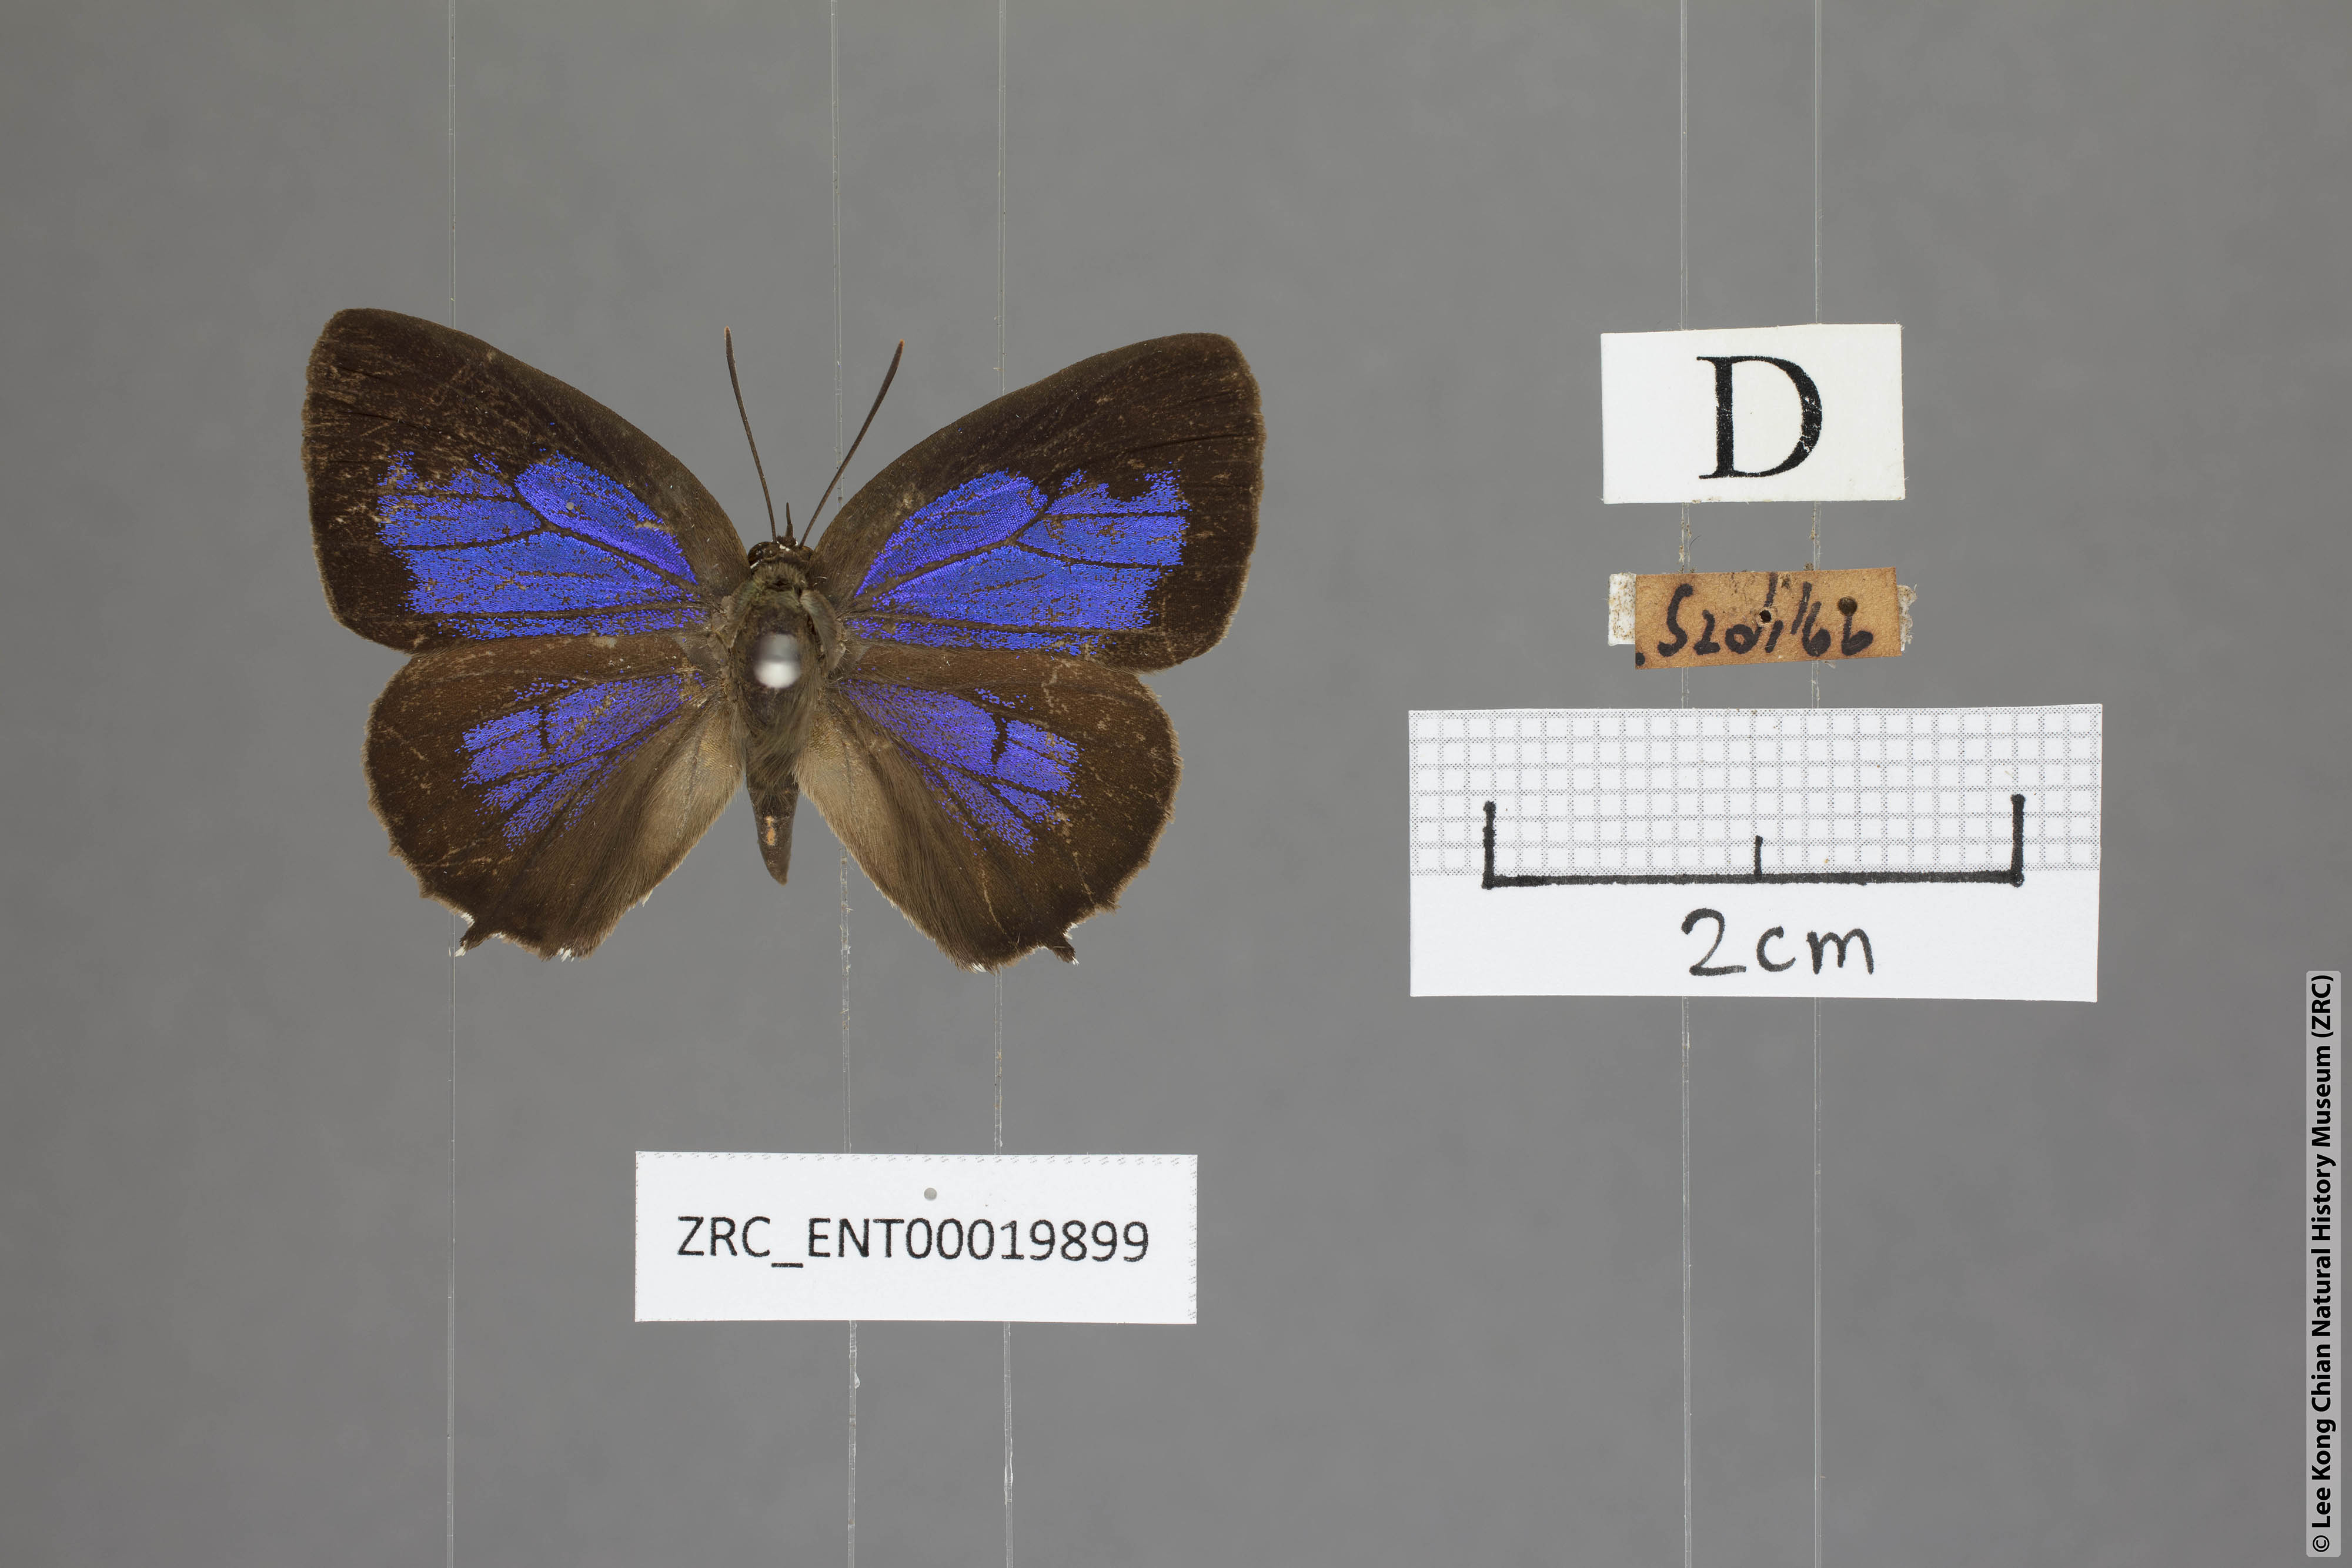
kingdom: Animalia
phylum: Arthropoda
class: Insecta
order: Lepidoptera
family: Lycaenidae
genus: Arhopala
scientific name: Arhopala trogon
